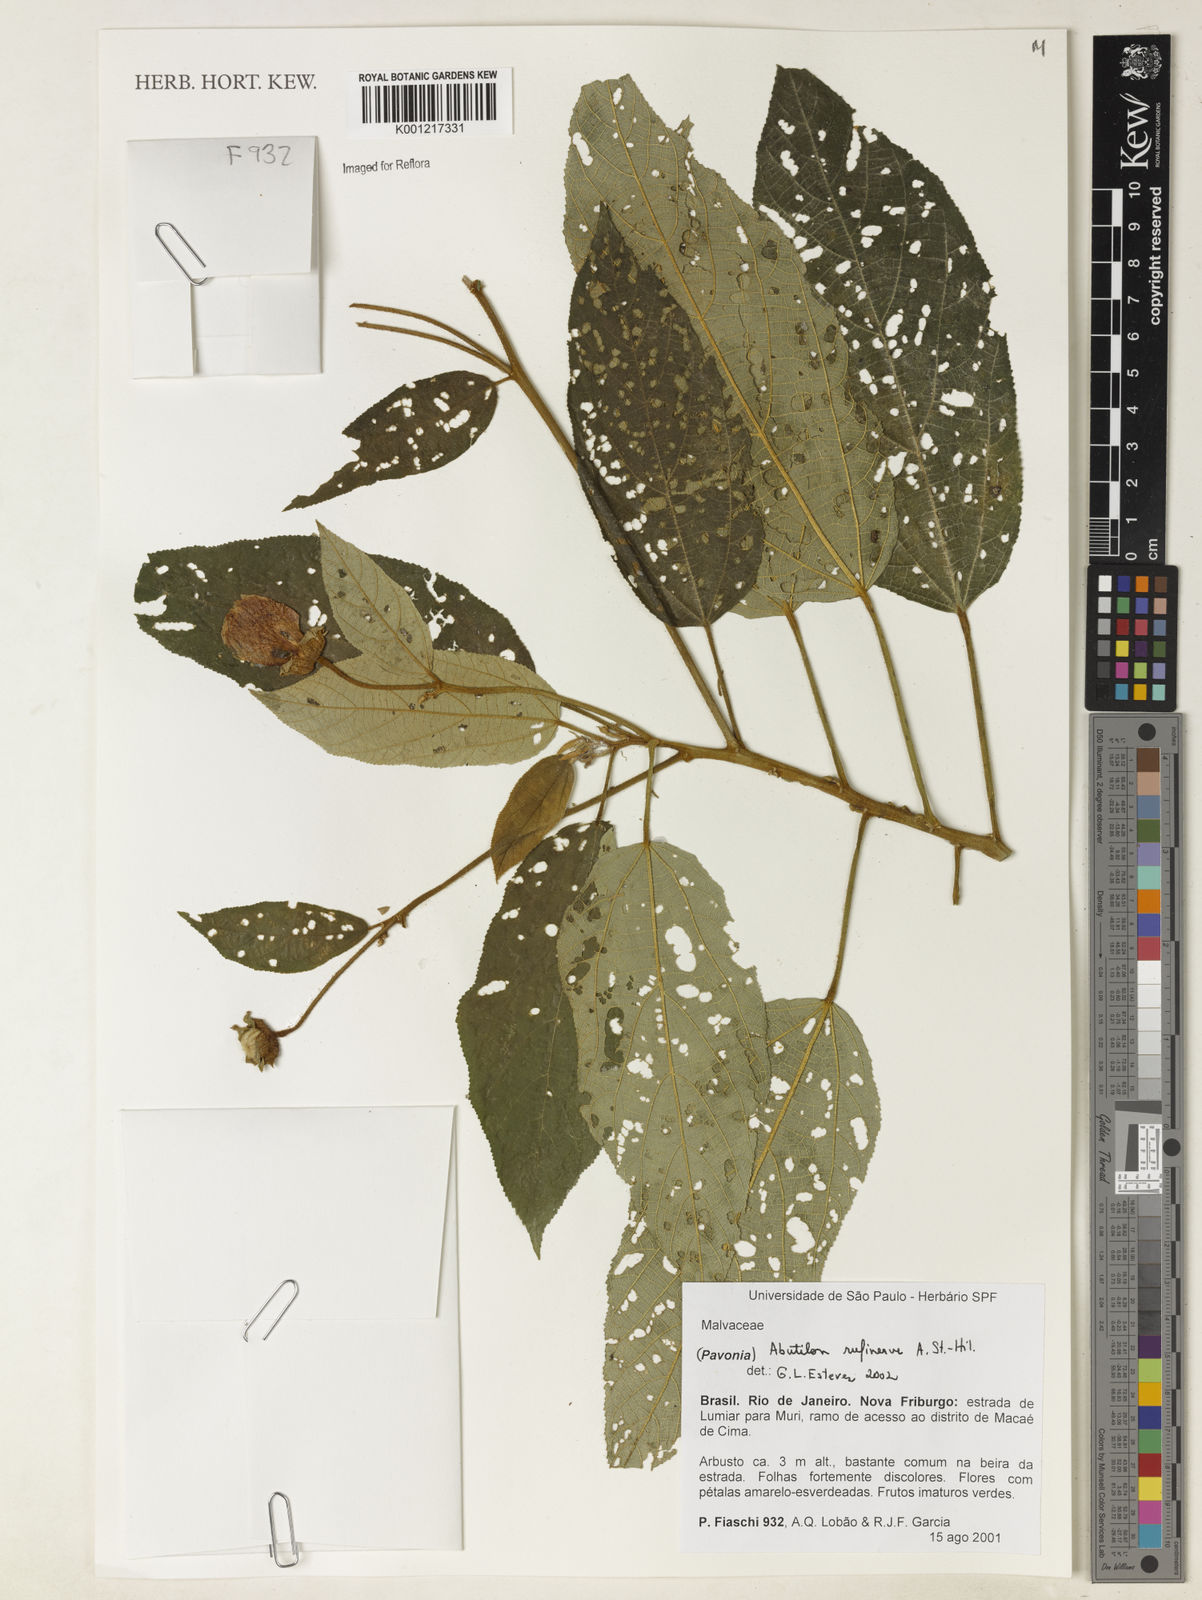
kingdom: Plantae
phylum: Tracheophyta
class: Magnoliopsida
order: Malvales
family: Malvaceae
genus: Callianthe
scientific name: Callianthe rufinerva
